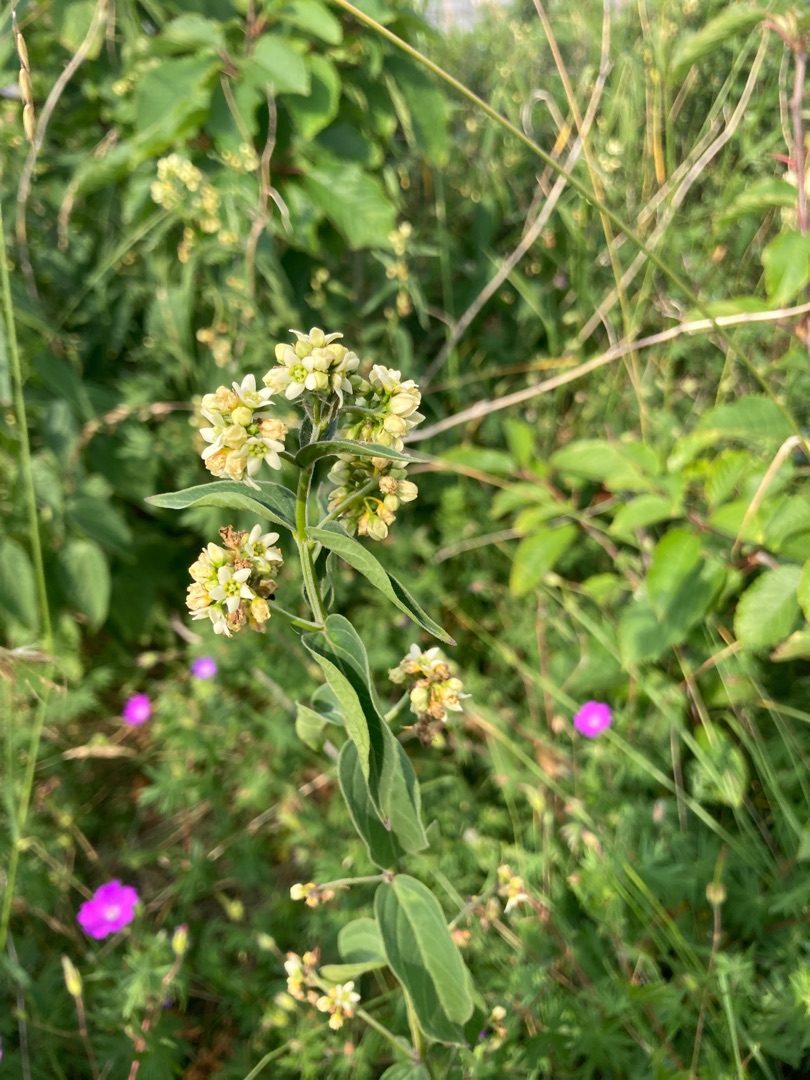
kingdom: Plantae
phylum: Tracheophyta
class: Magnoliopsida
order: Gentianales
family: Apocynaceae
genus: Vincetoxicum
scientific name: Vincetoxicum hirundinaria
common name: Svalerod
